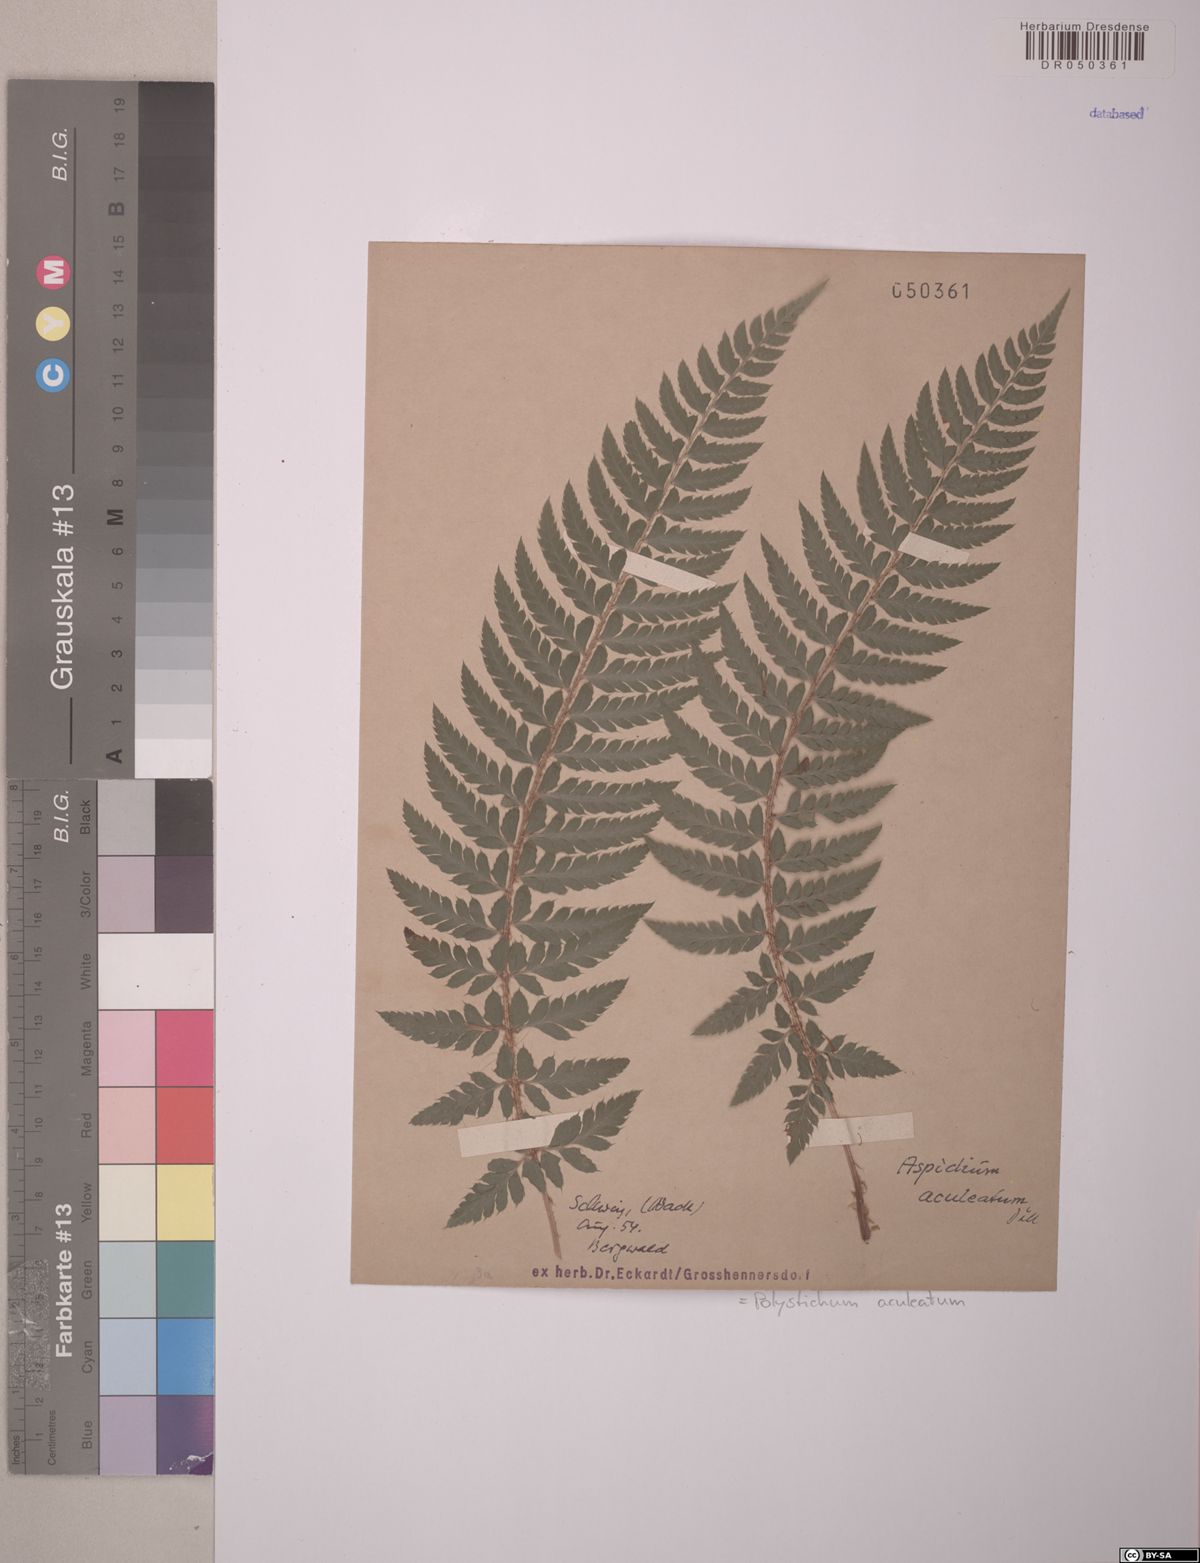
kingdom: Plantae
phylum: Tracheophyta
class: Polypodiopsida
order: Polypodiales
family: Dryopteridaceae
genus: Polystichum
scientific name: Polystichum aculeatum
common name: Hard shield-fern
